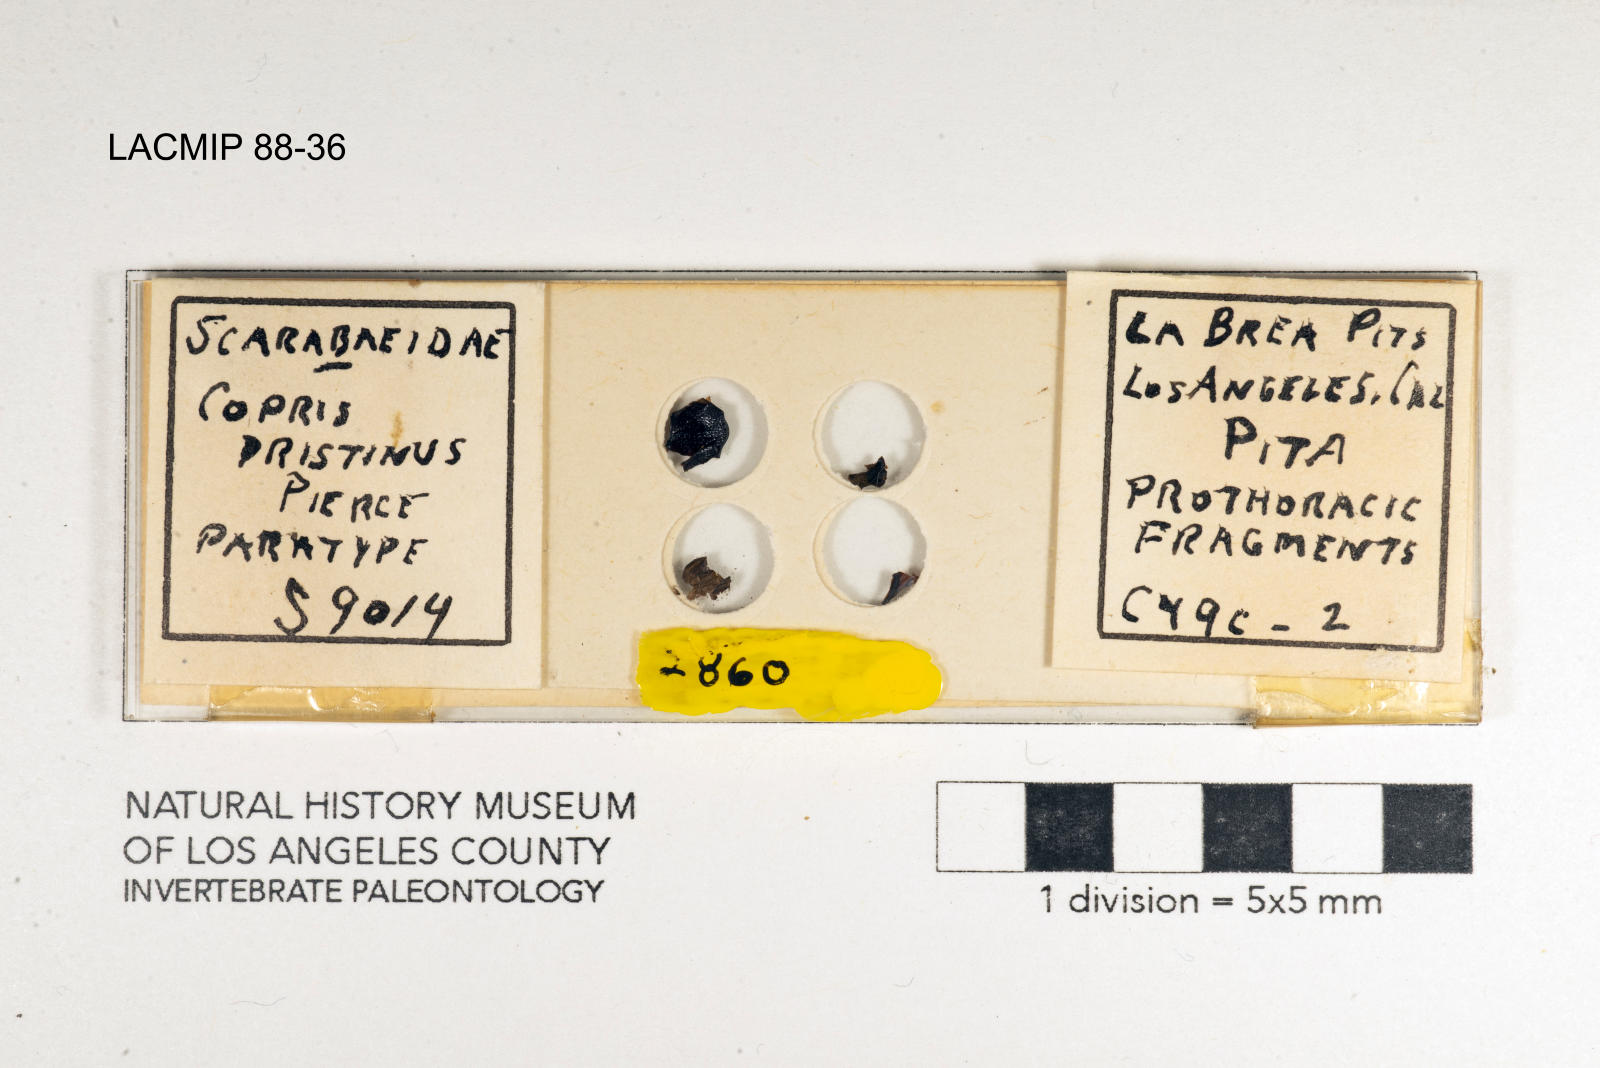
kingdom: Animalia
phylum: Arthropoda
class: Insecta
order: Coleoptera
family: Scarabaeidae
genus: Copris
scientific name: Copris pristinus
